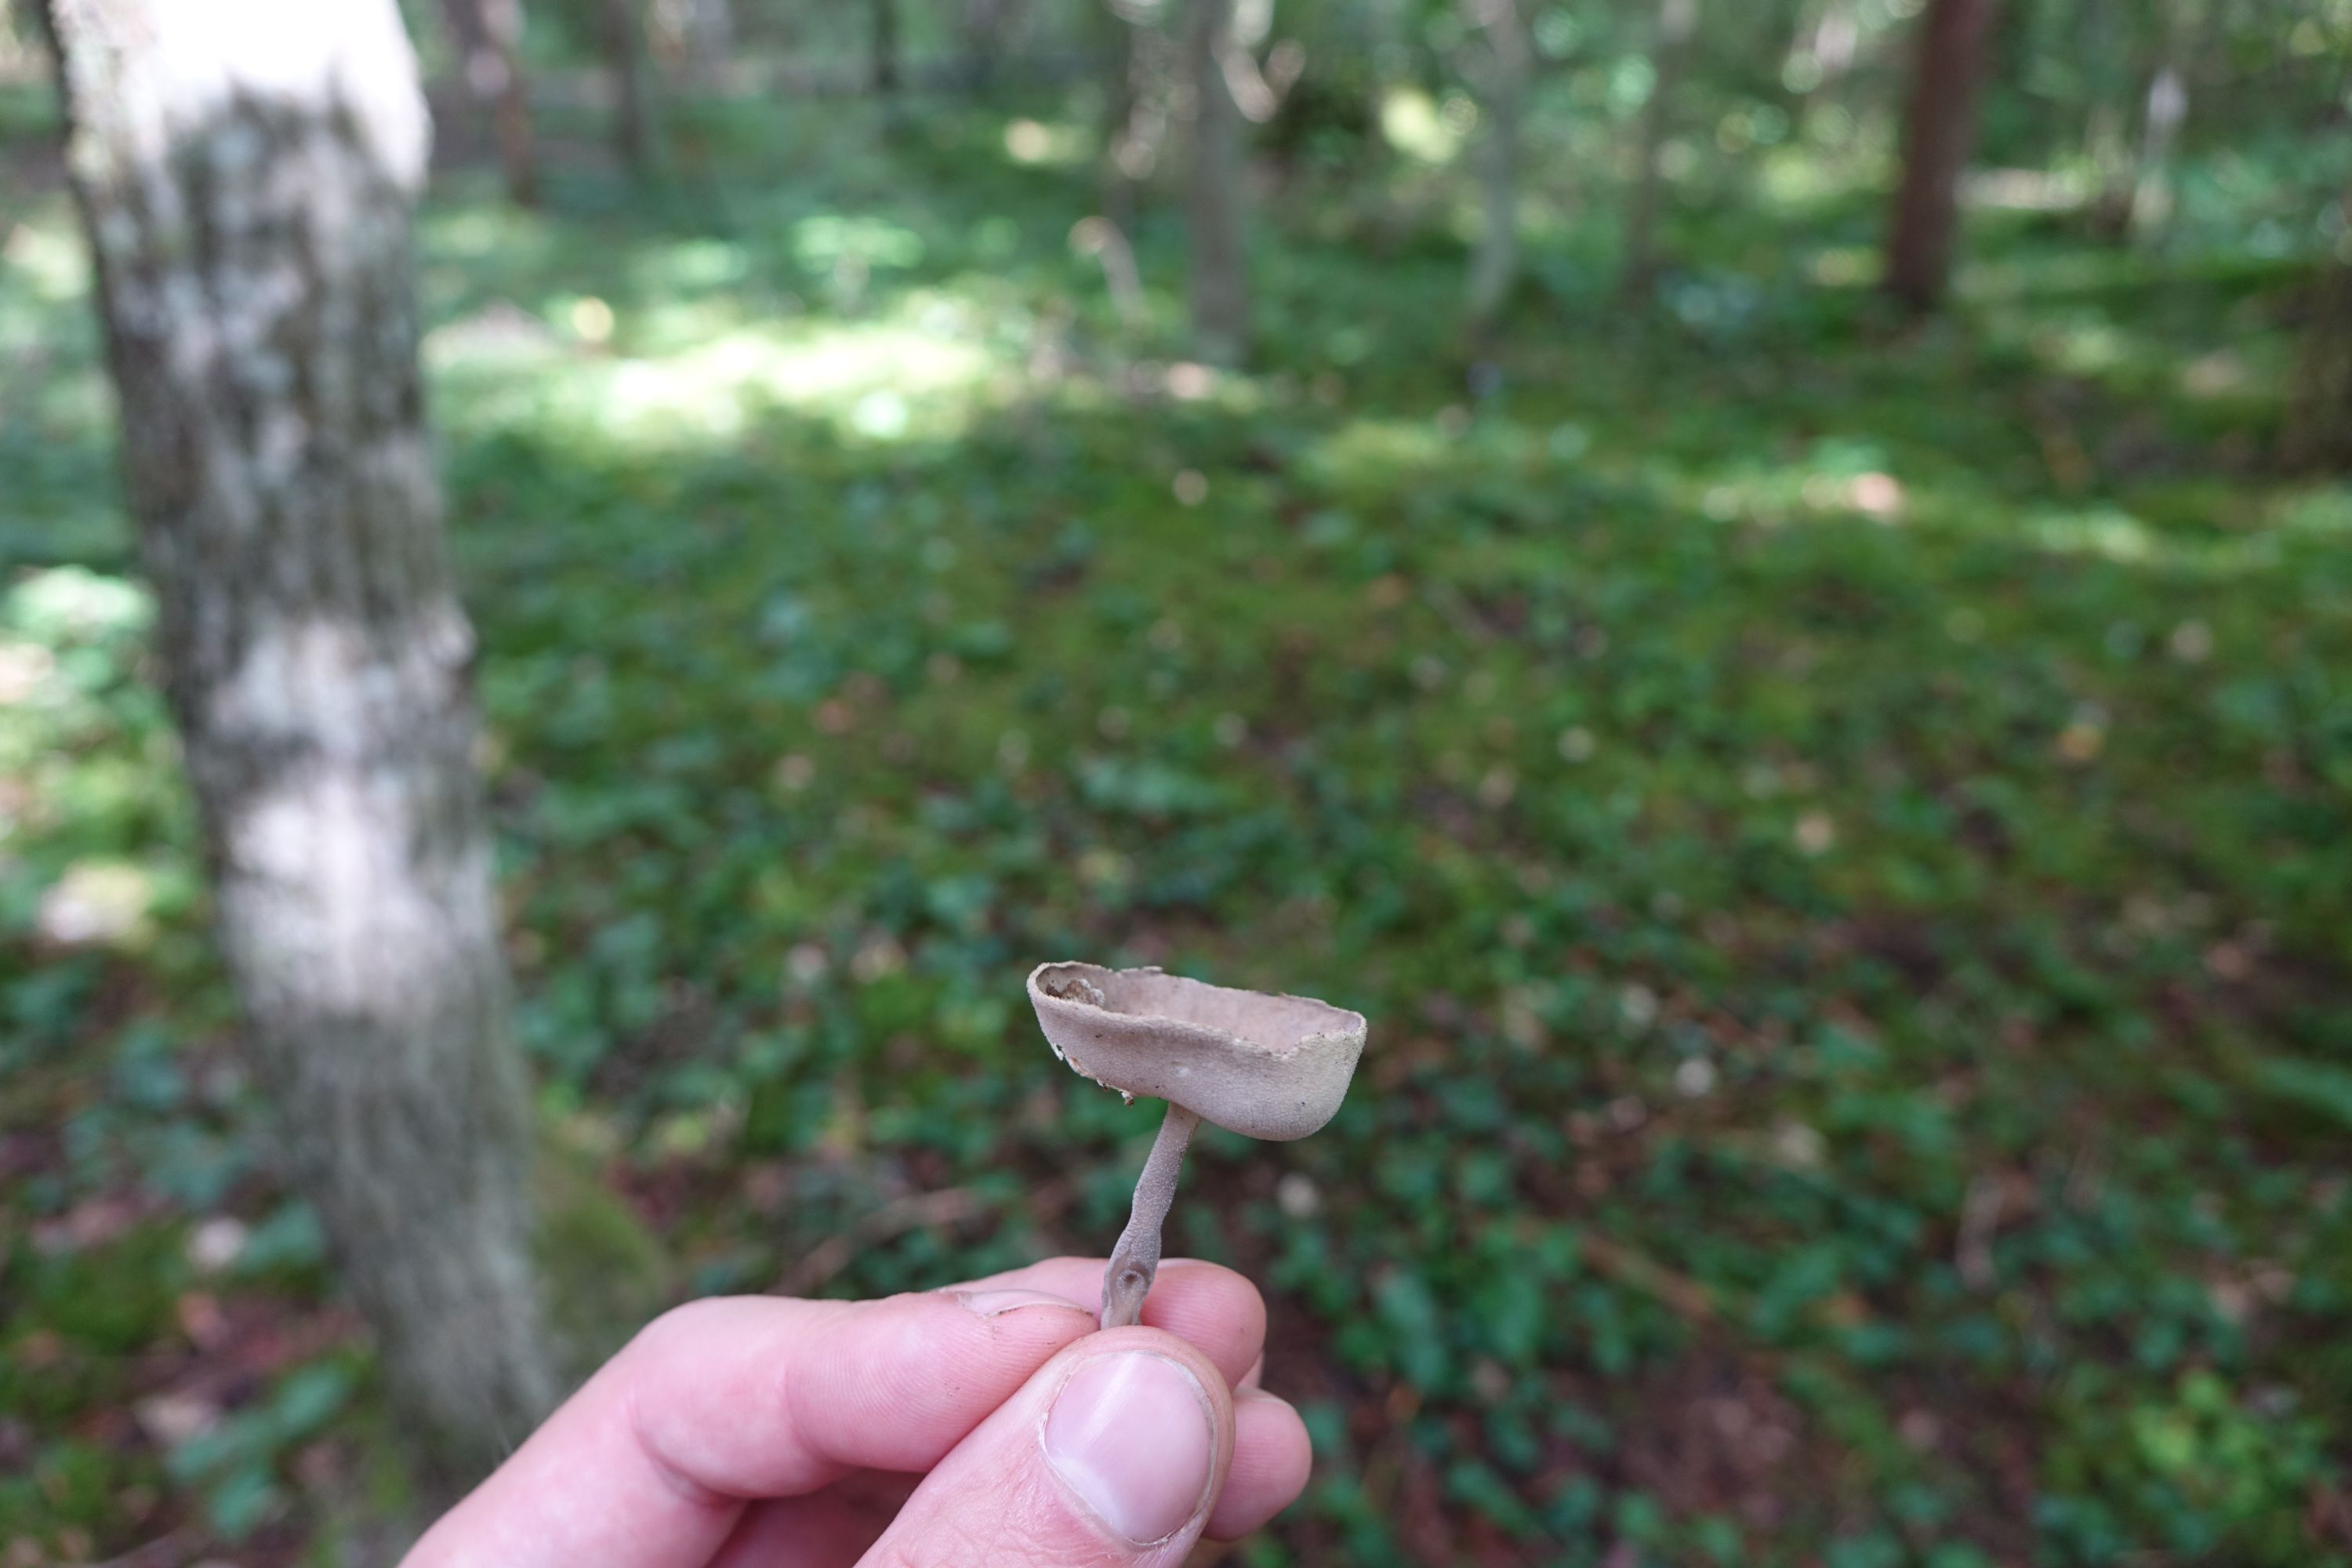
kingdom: Fungi
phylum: Ascomycota
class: Pezizomycetes
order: Pezizales
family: Helvellaceae
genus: Helvella
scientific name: Helvella macropus
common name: Felt saddle
